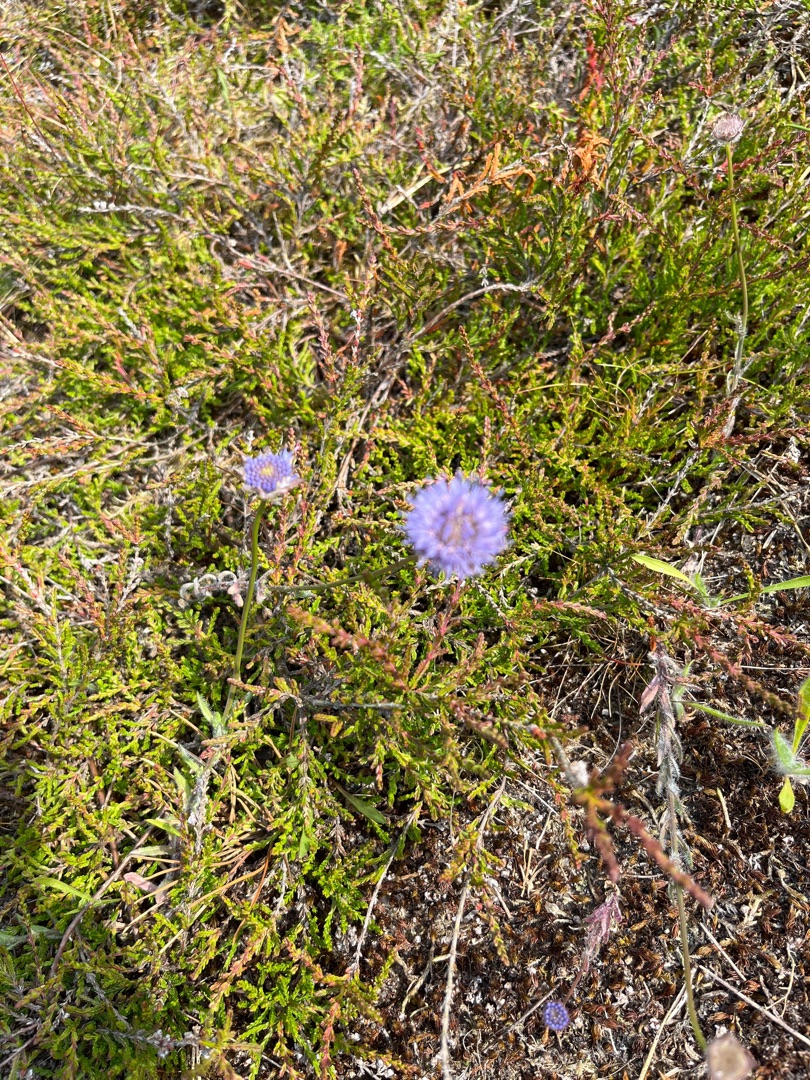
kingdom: Plantae
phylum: Tracheophyta
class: Magnoliopsida
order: Asterales
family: Campanulaceae
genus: Jasione
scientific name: Jasione montana
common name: Blåmunke
